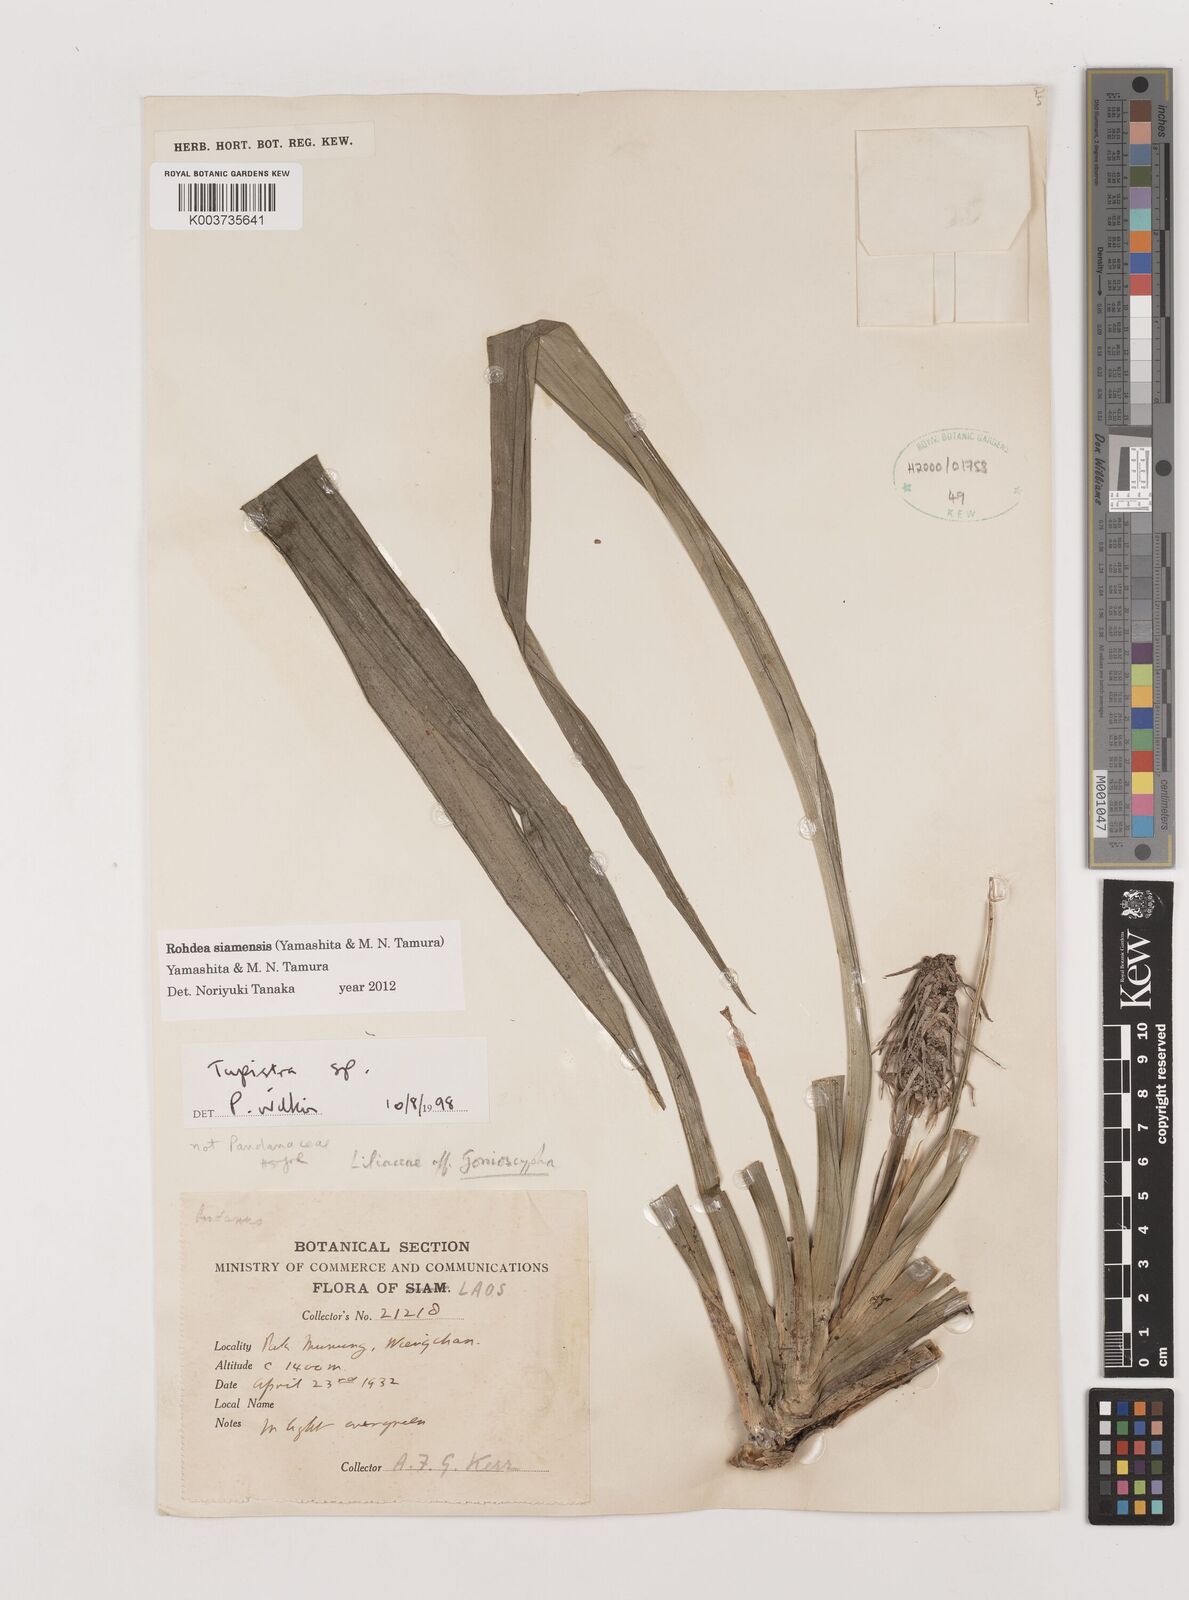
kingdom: Plantae
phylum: Tracheophyta
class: Liliopsida
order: Asparagales
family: Asparagaceae
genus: Rohdea
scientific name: Rohdea siamensis
